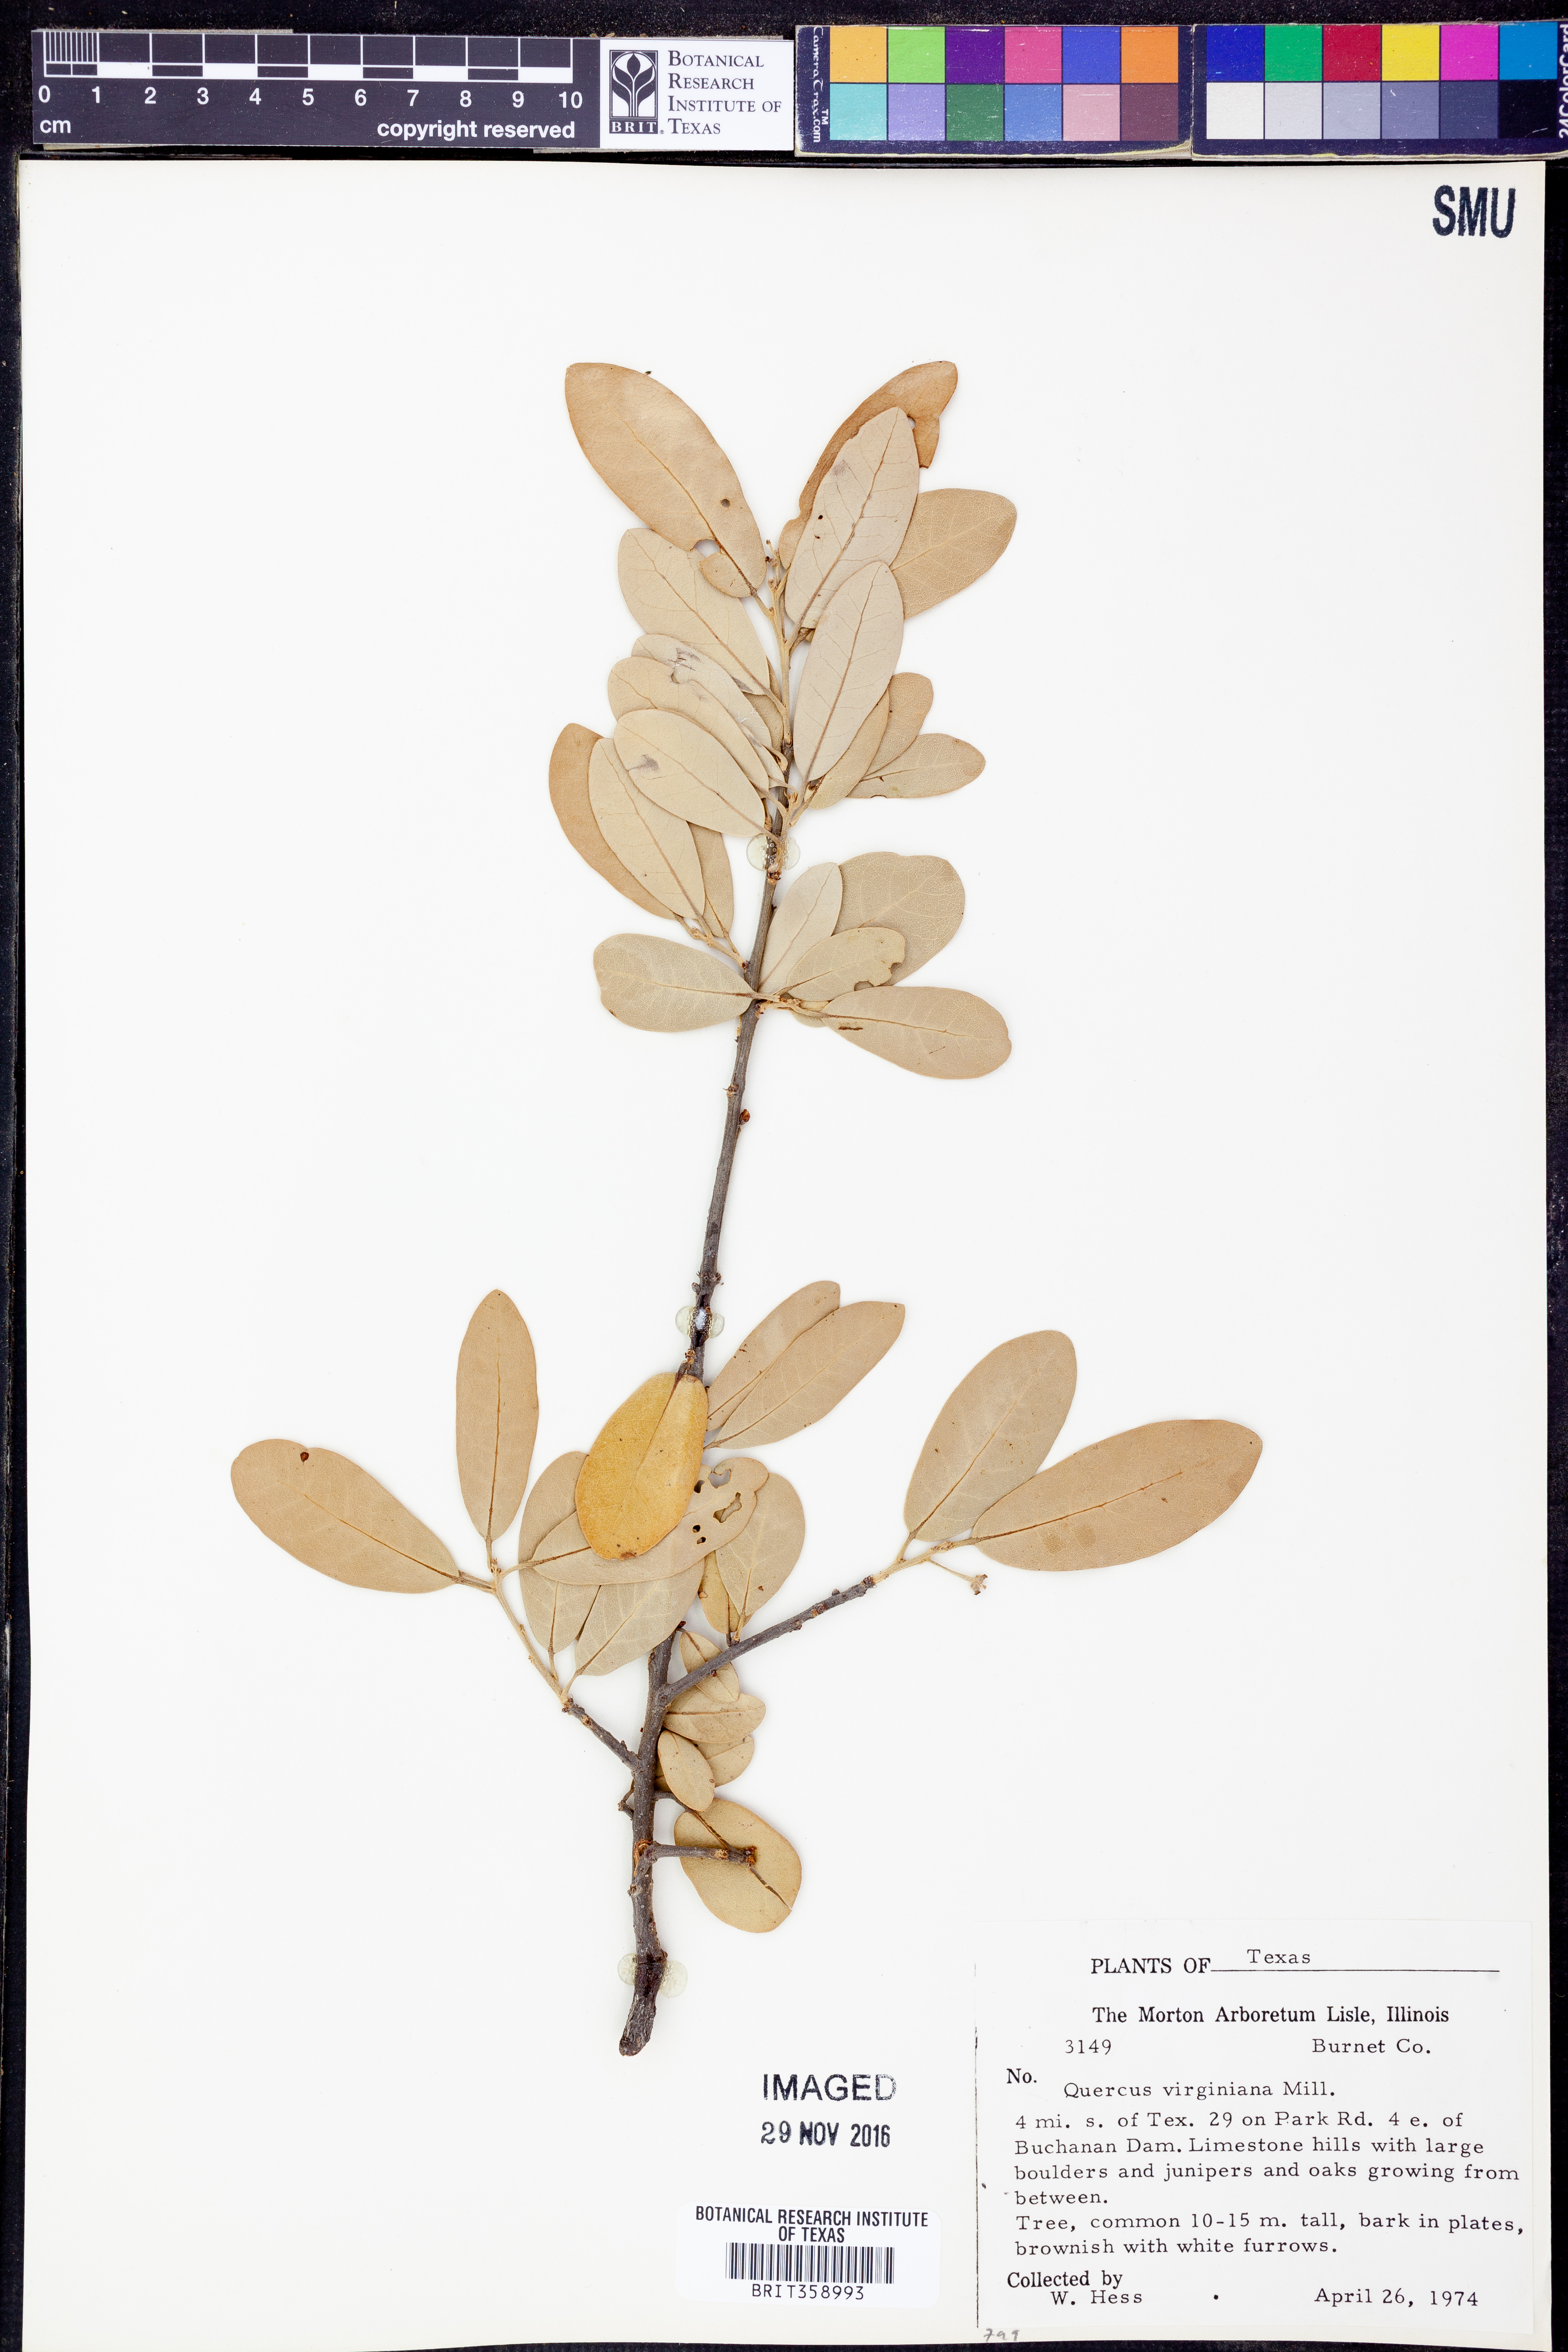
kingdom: Plantae
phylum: Tracheophyta
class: Magnoliopsida
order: Fagales
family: Fagaceae
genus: Quercus
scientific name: Quercus virginiana
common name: Southern live oak
